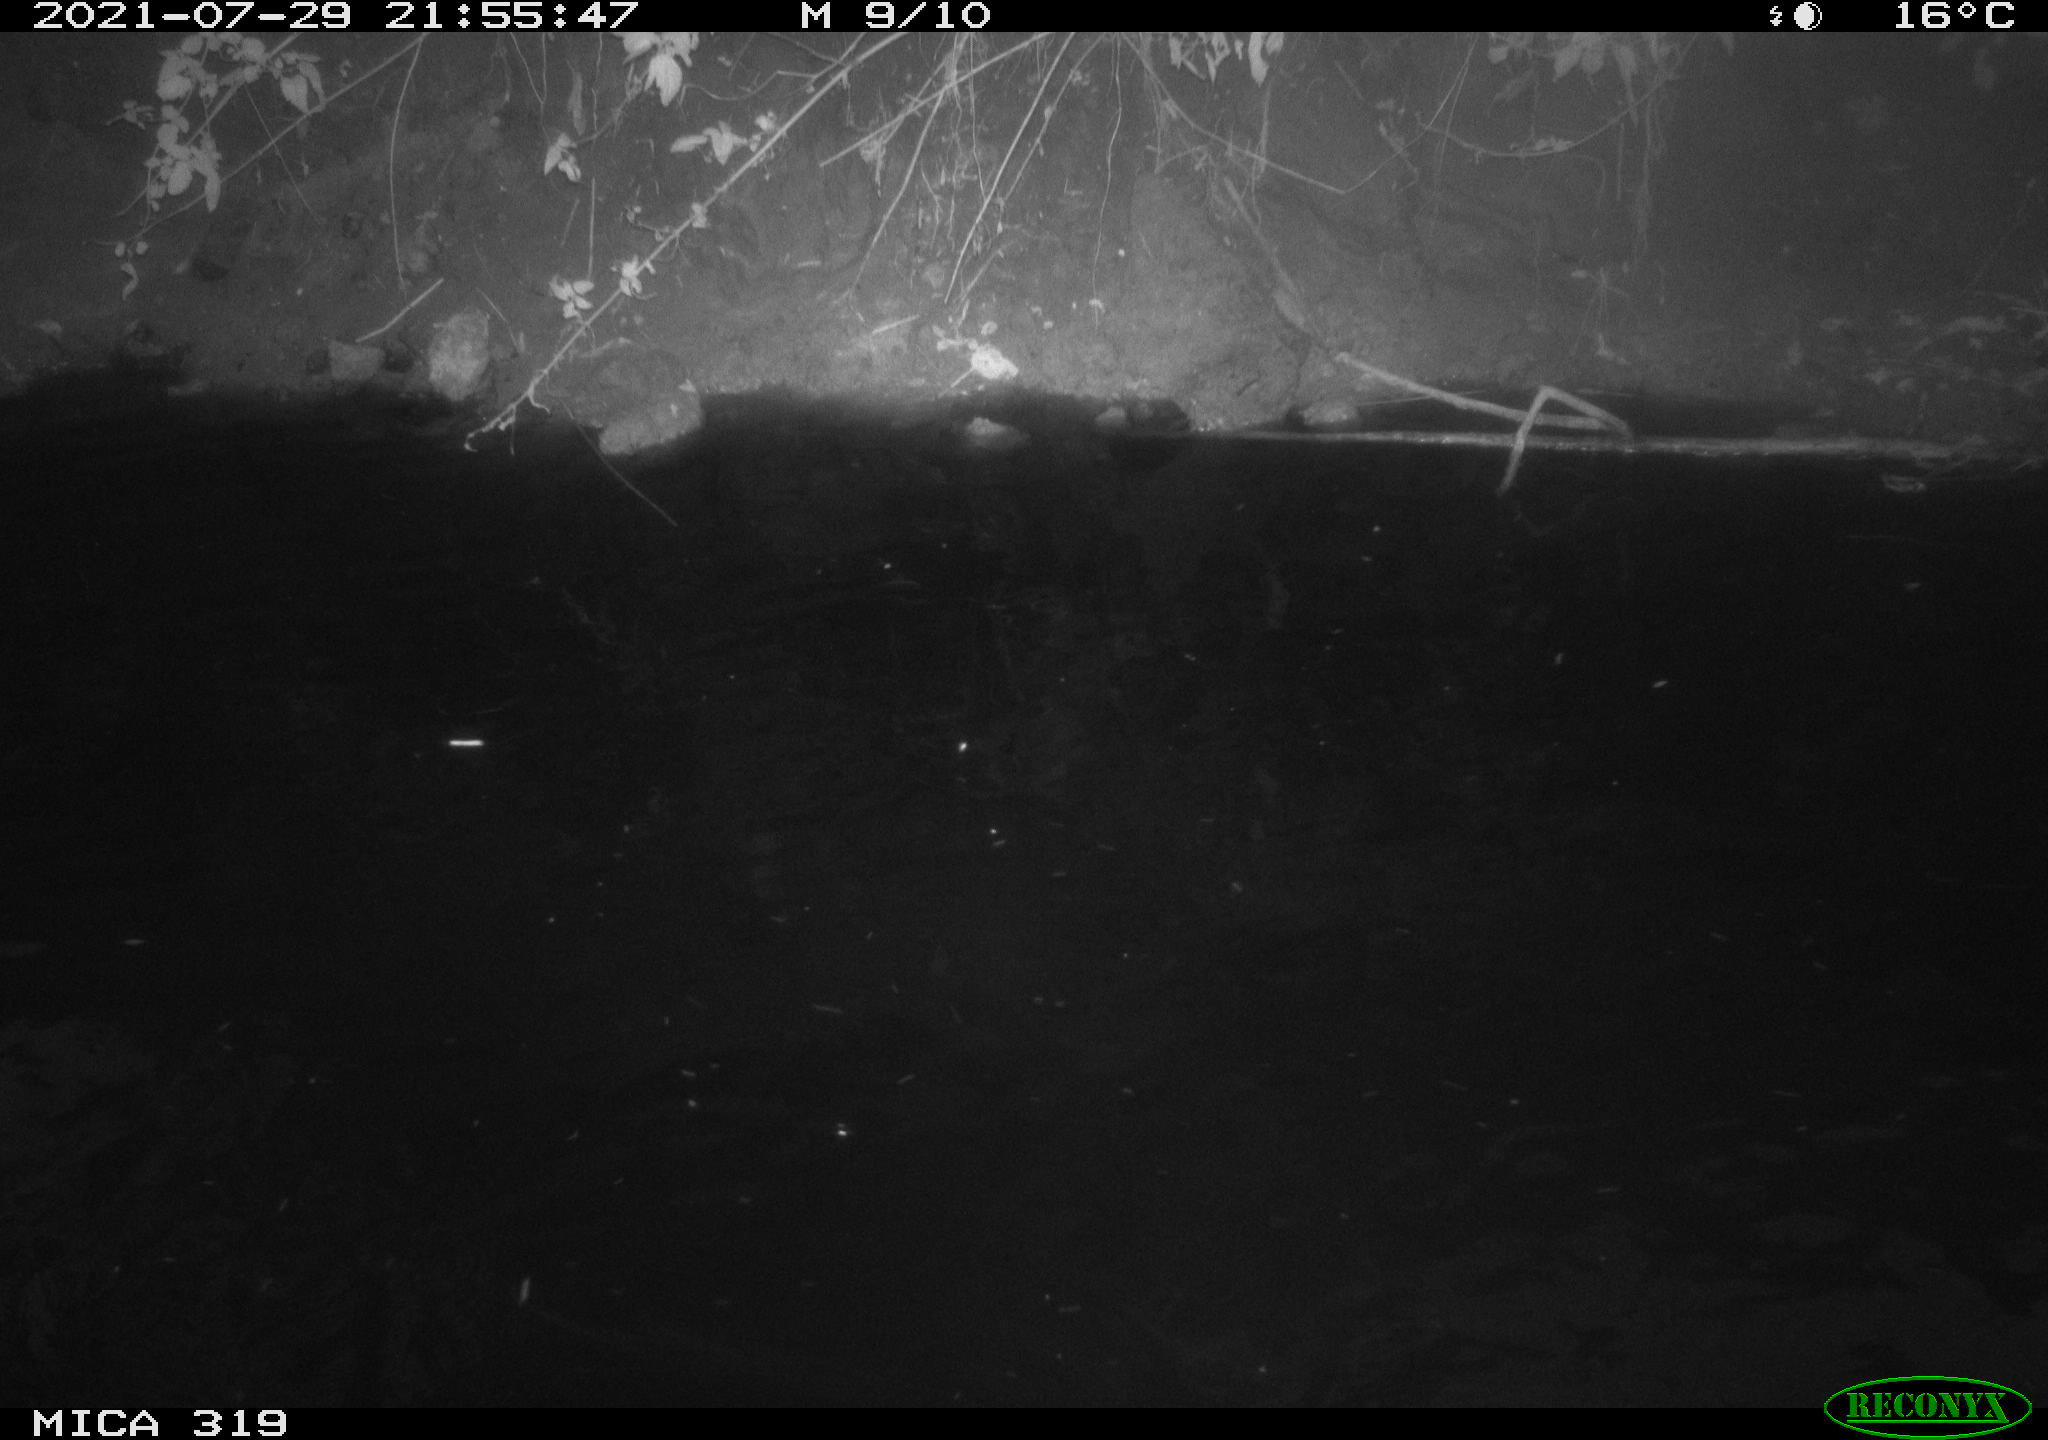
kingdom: Animalia
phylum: Chordata
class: Aves
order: Anseriformes
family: Anatidae
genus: Anas
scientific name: Anas platyrhynchos
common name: Mallard
